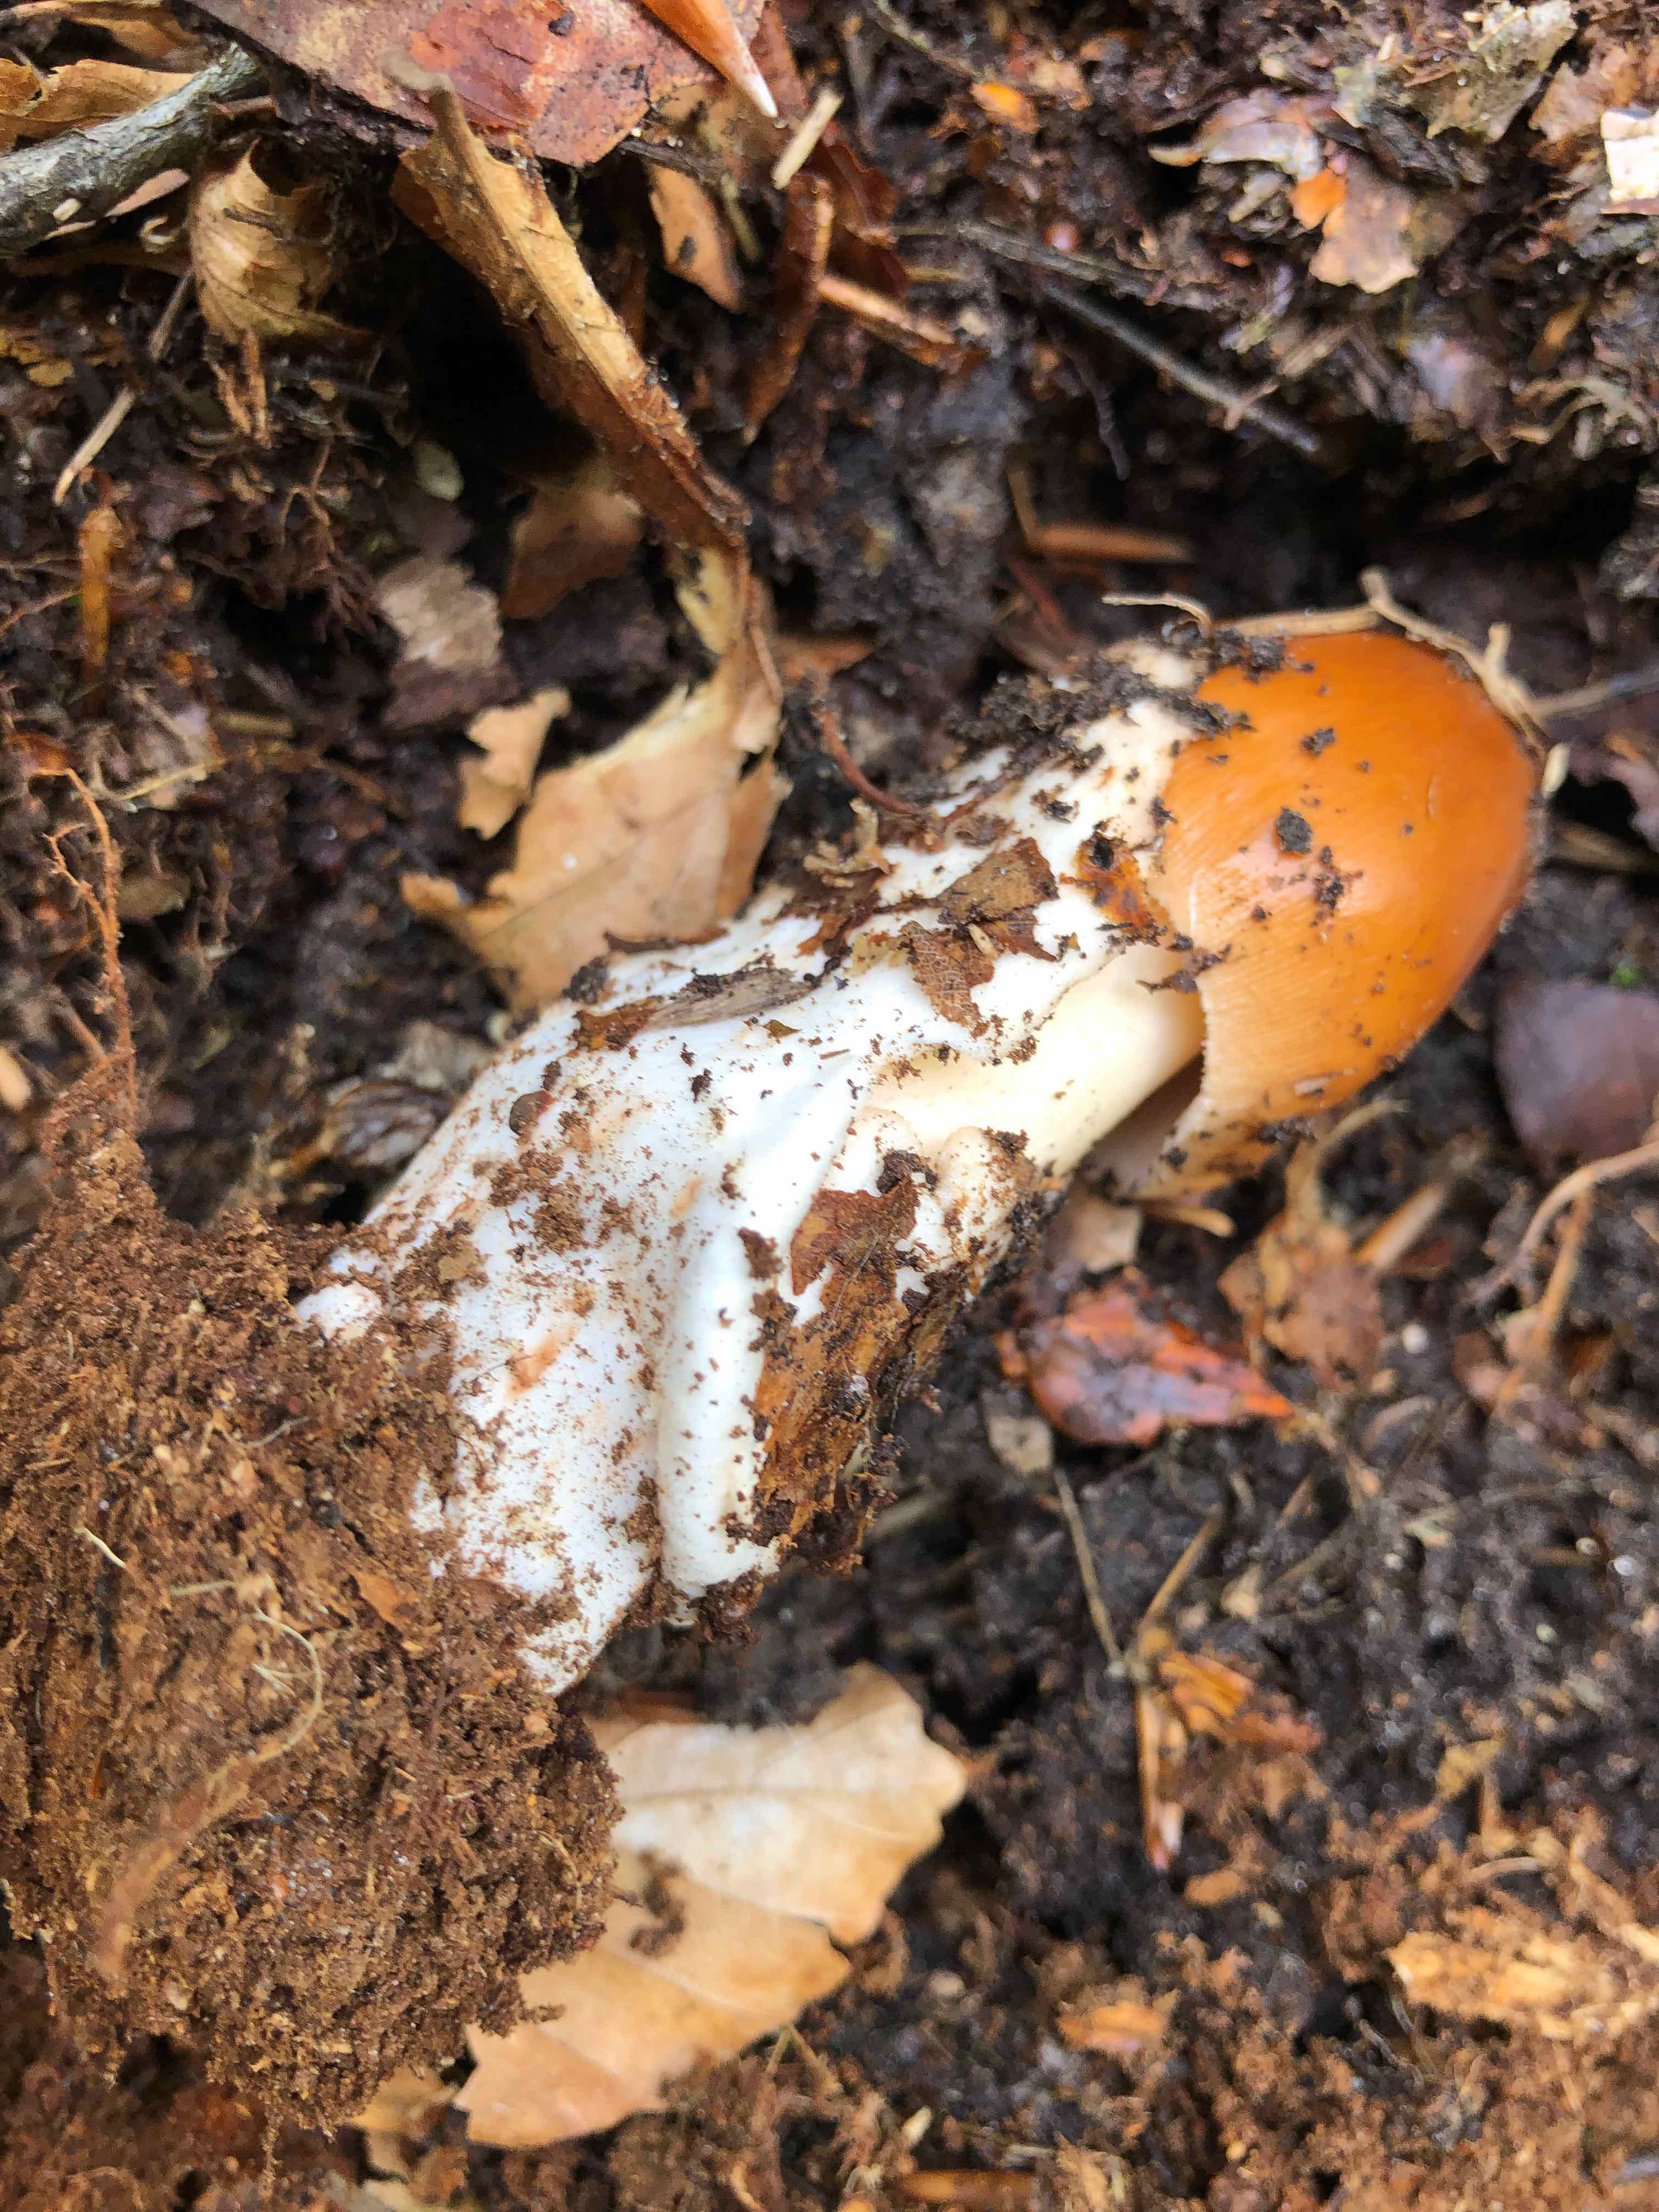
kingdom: Fungi
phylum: Basidiomycota
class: Agaricomycetes
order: Agaricales
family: Amanitaceae
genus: Amanita
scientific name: Amanita fulva
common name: brun kam-fluesvamp
